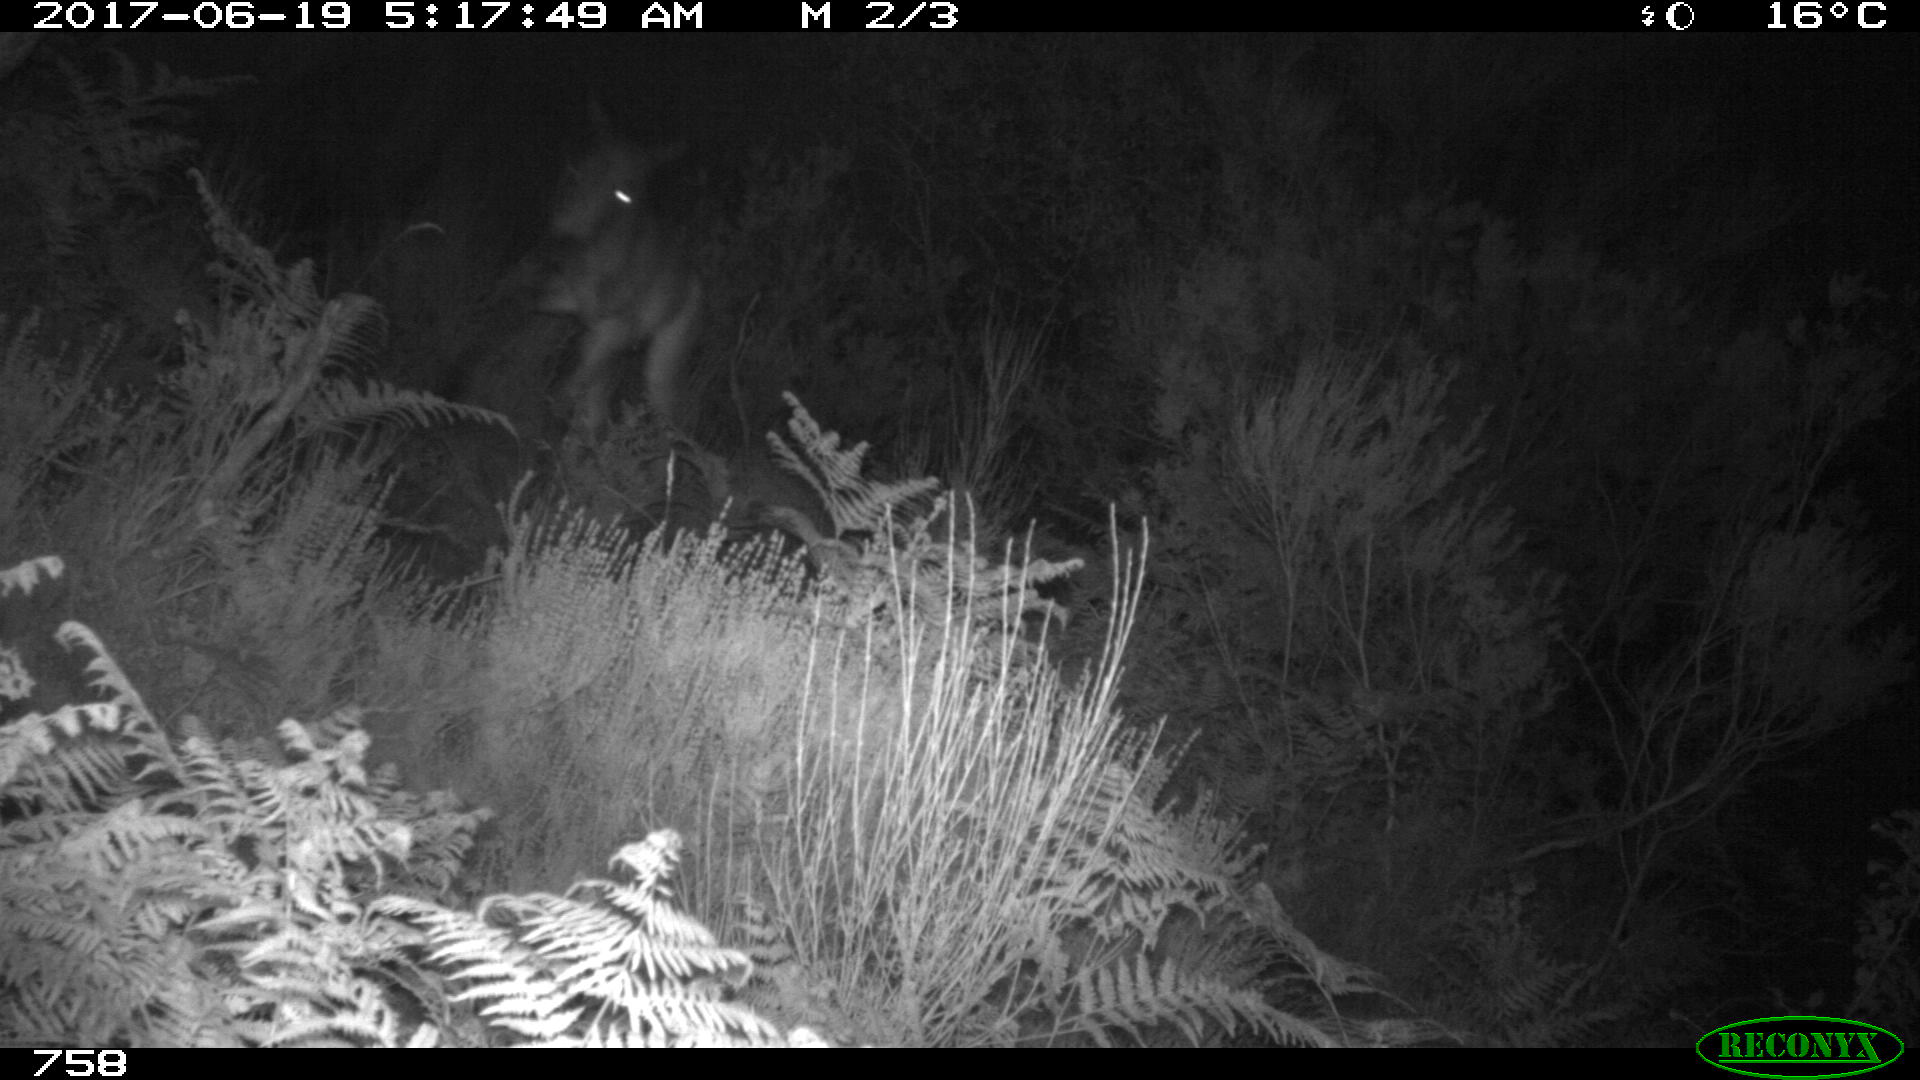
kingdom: Animalia
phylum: Chordata
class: Mammalia
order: Perissodactyla
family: Equidae
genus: Equus
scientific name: Equus caballus
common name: Horse
